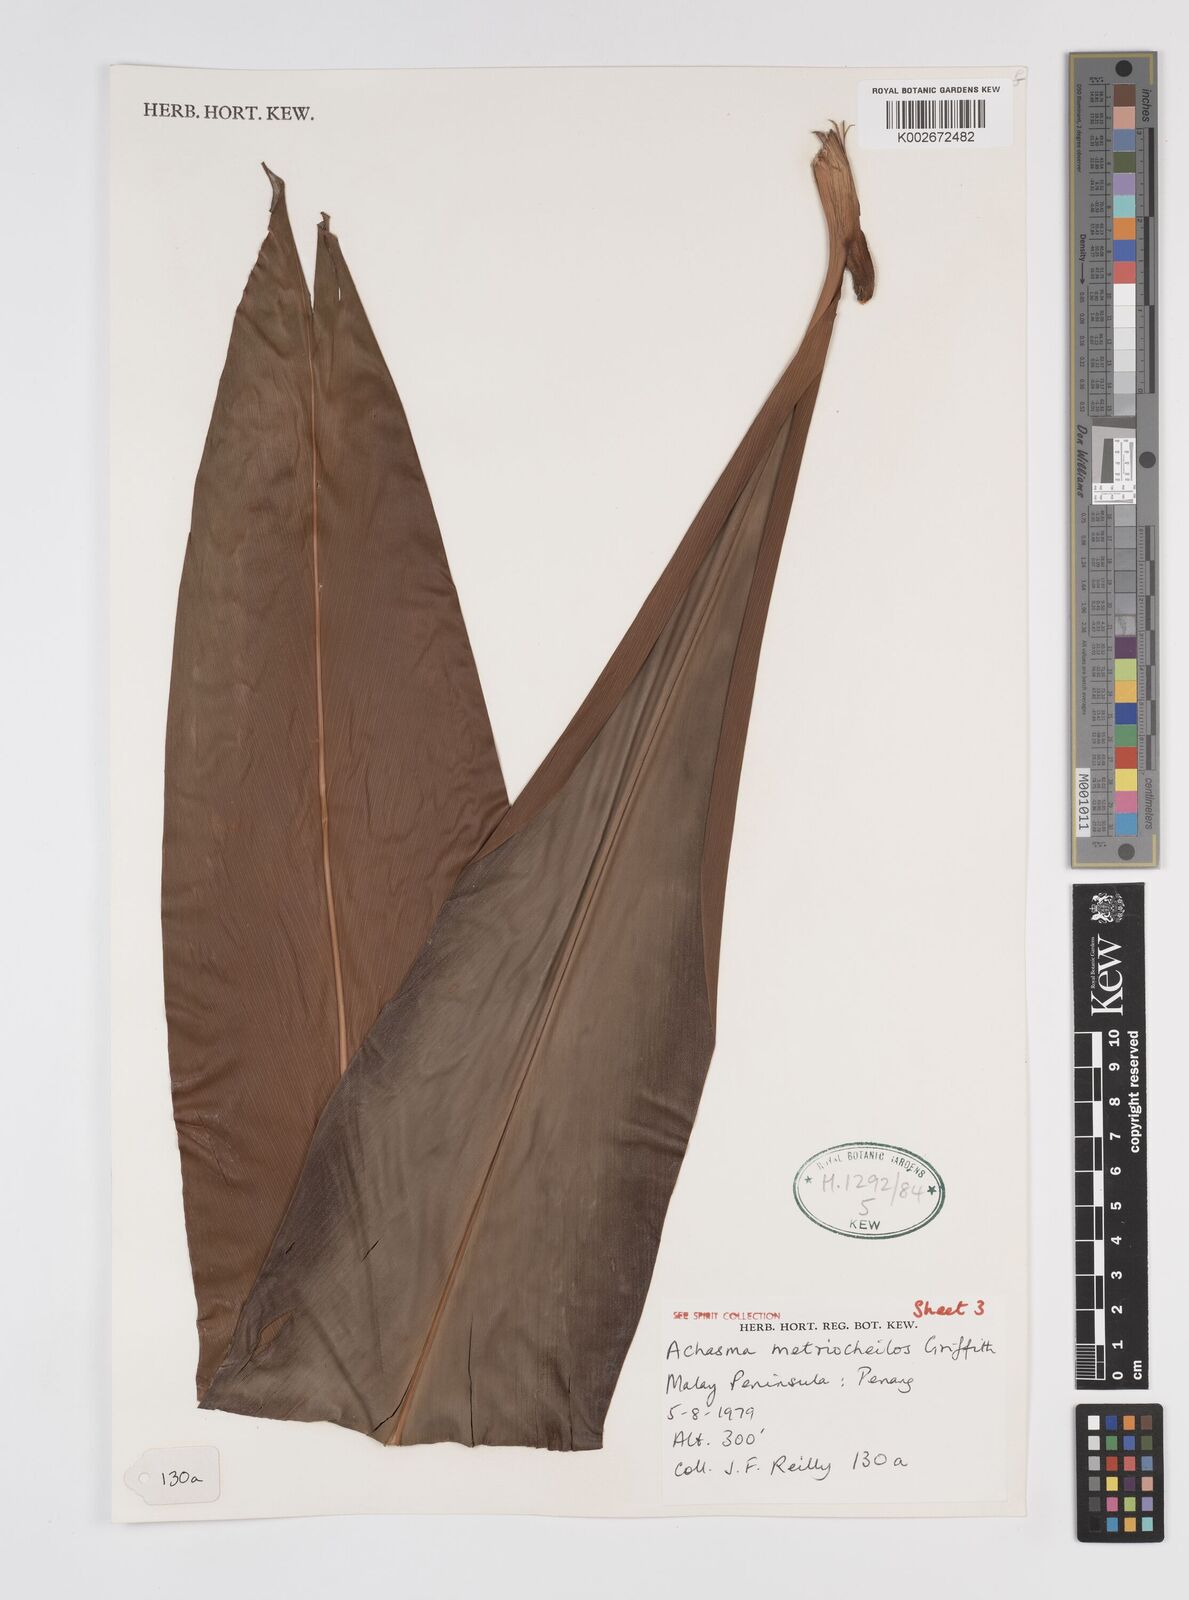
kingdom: Plantae
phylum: Tracheophyta
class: Liliopsida
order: Zingiberales
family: Zingiberaceae
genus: Etlingera
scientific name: Etlingera metriocheilos
